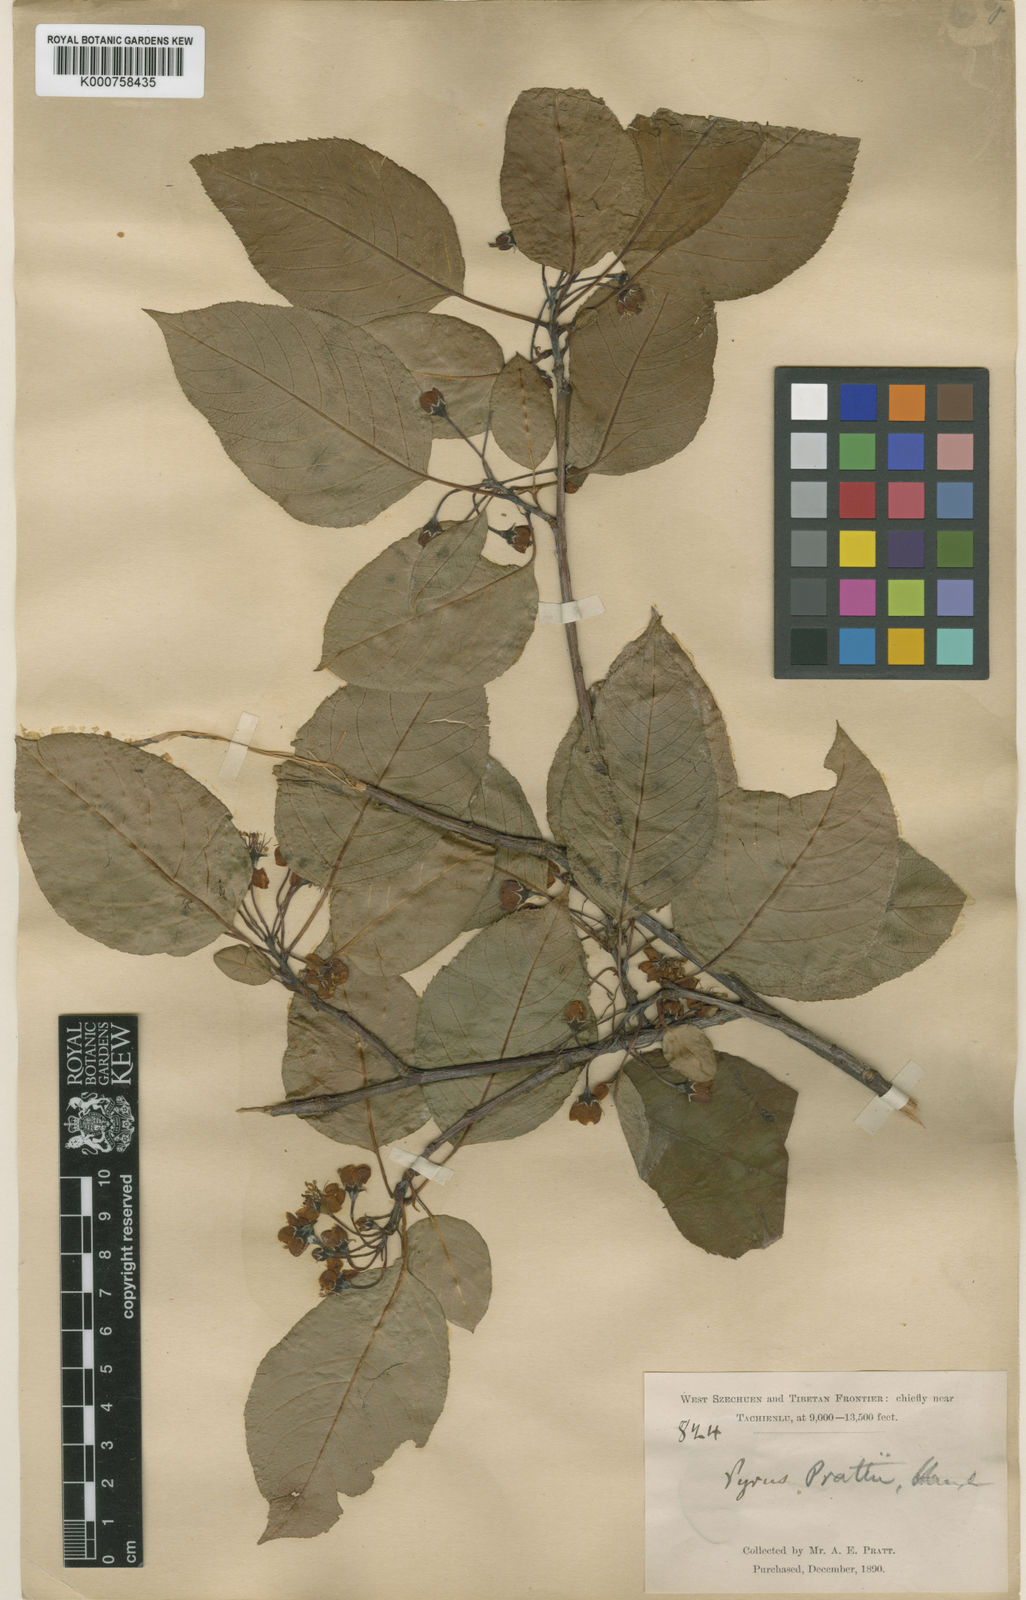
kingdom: Plantae
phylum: Tracheophyta
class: Magnoliopsida
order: Rosales
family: Rosaceae
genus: Malus
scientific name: Malus prattii
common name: Pratt apple
